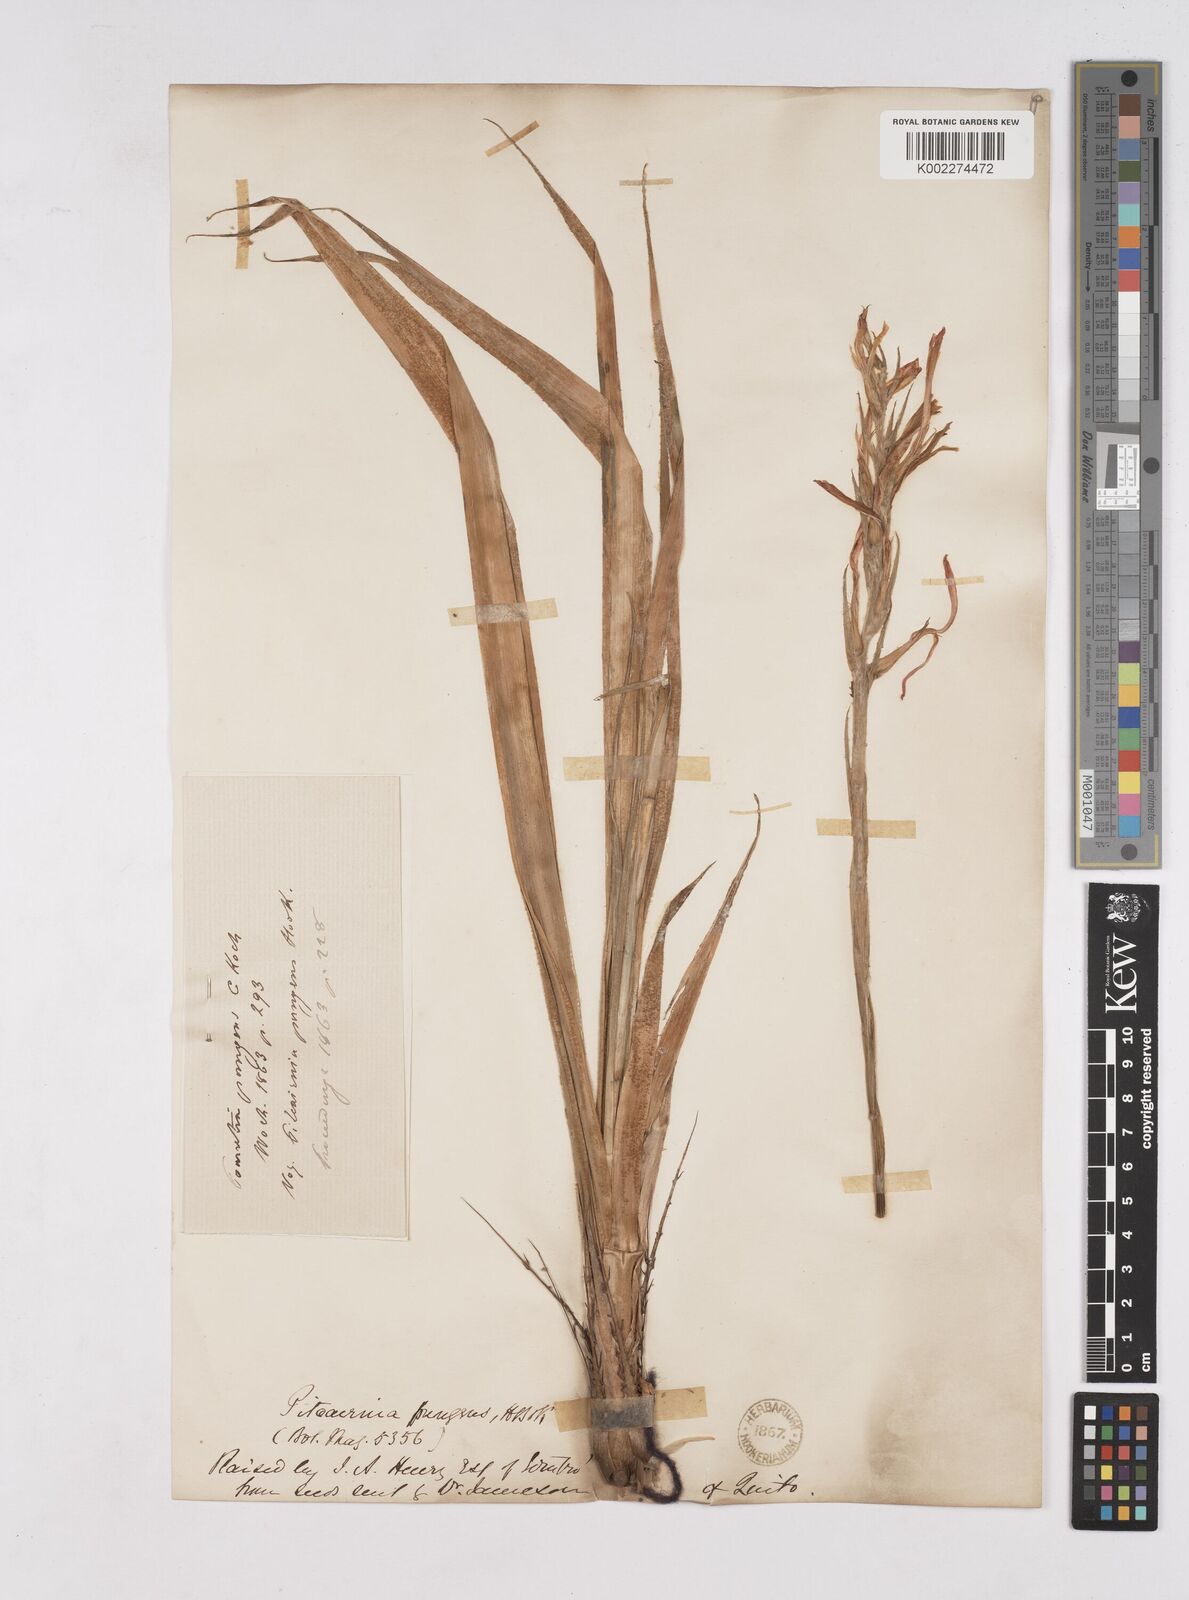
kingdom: Plantae
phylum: Tracheophyta
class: Liliopsida
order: Poales
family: Bromeliaceae
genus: Pitcairnia
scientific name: Pitcairnia pungens
